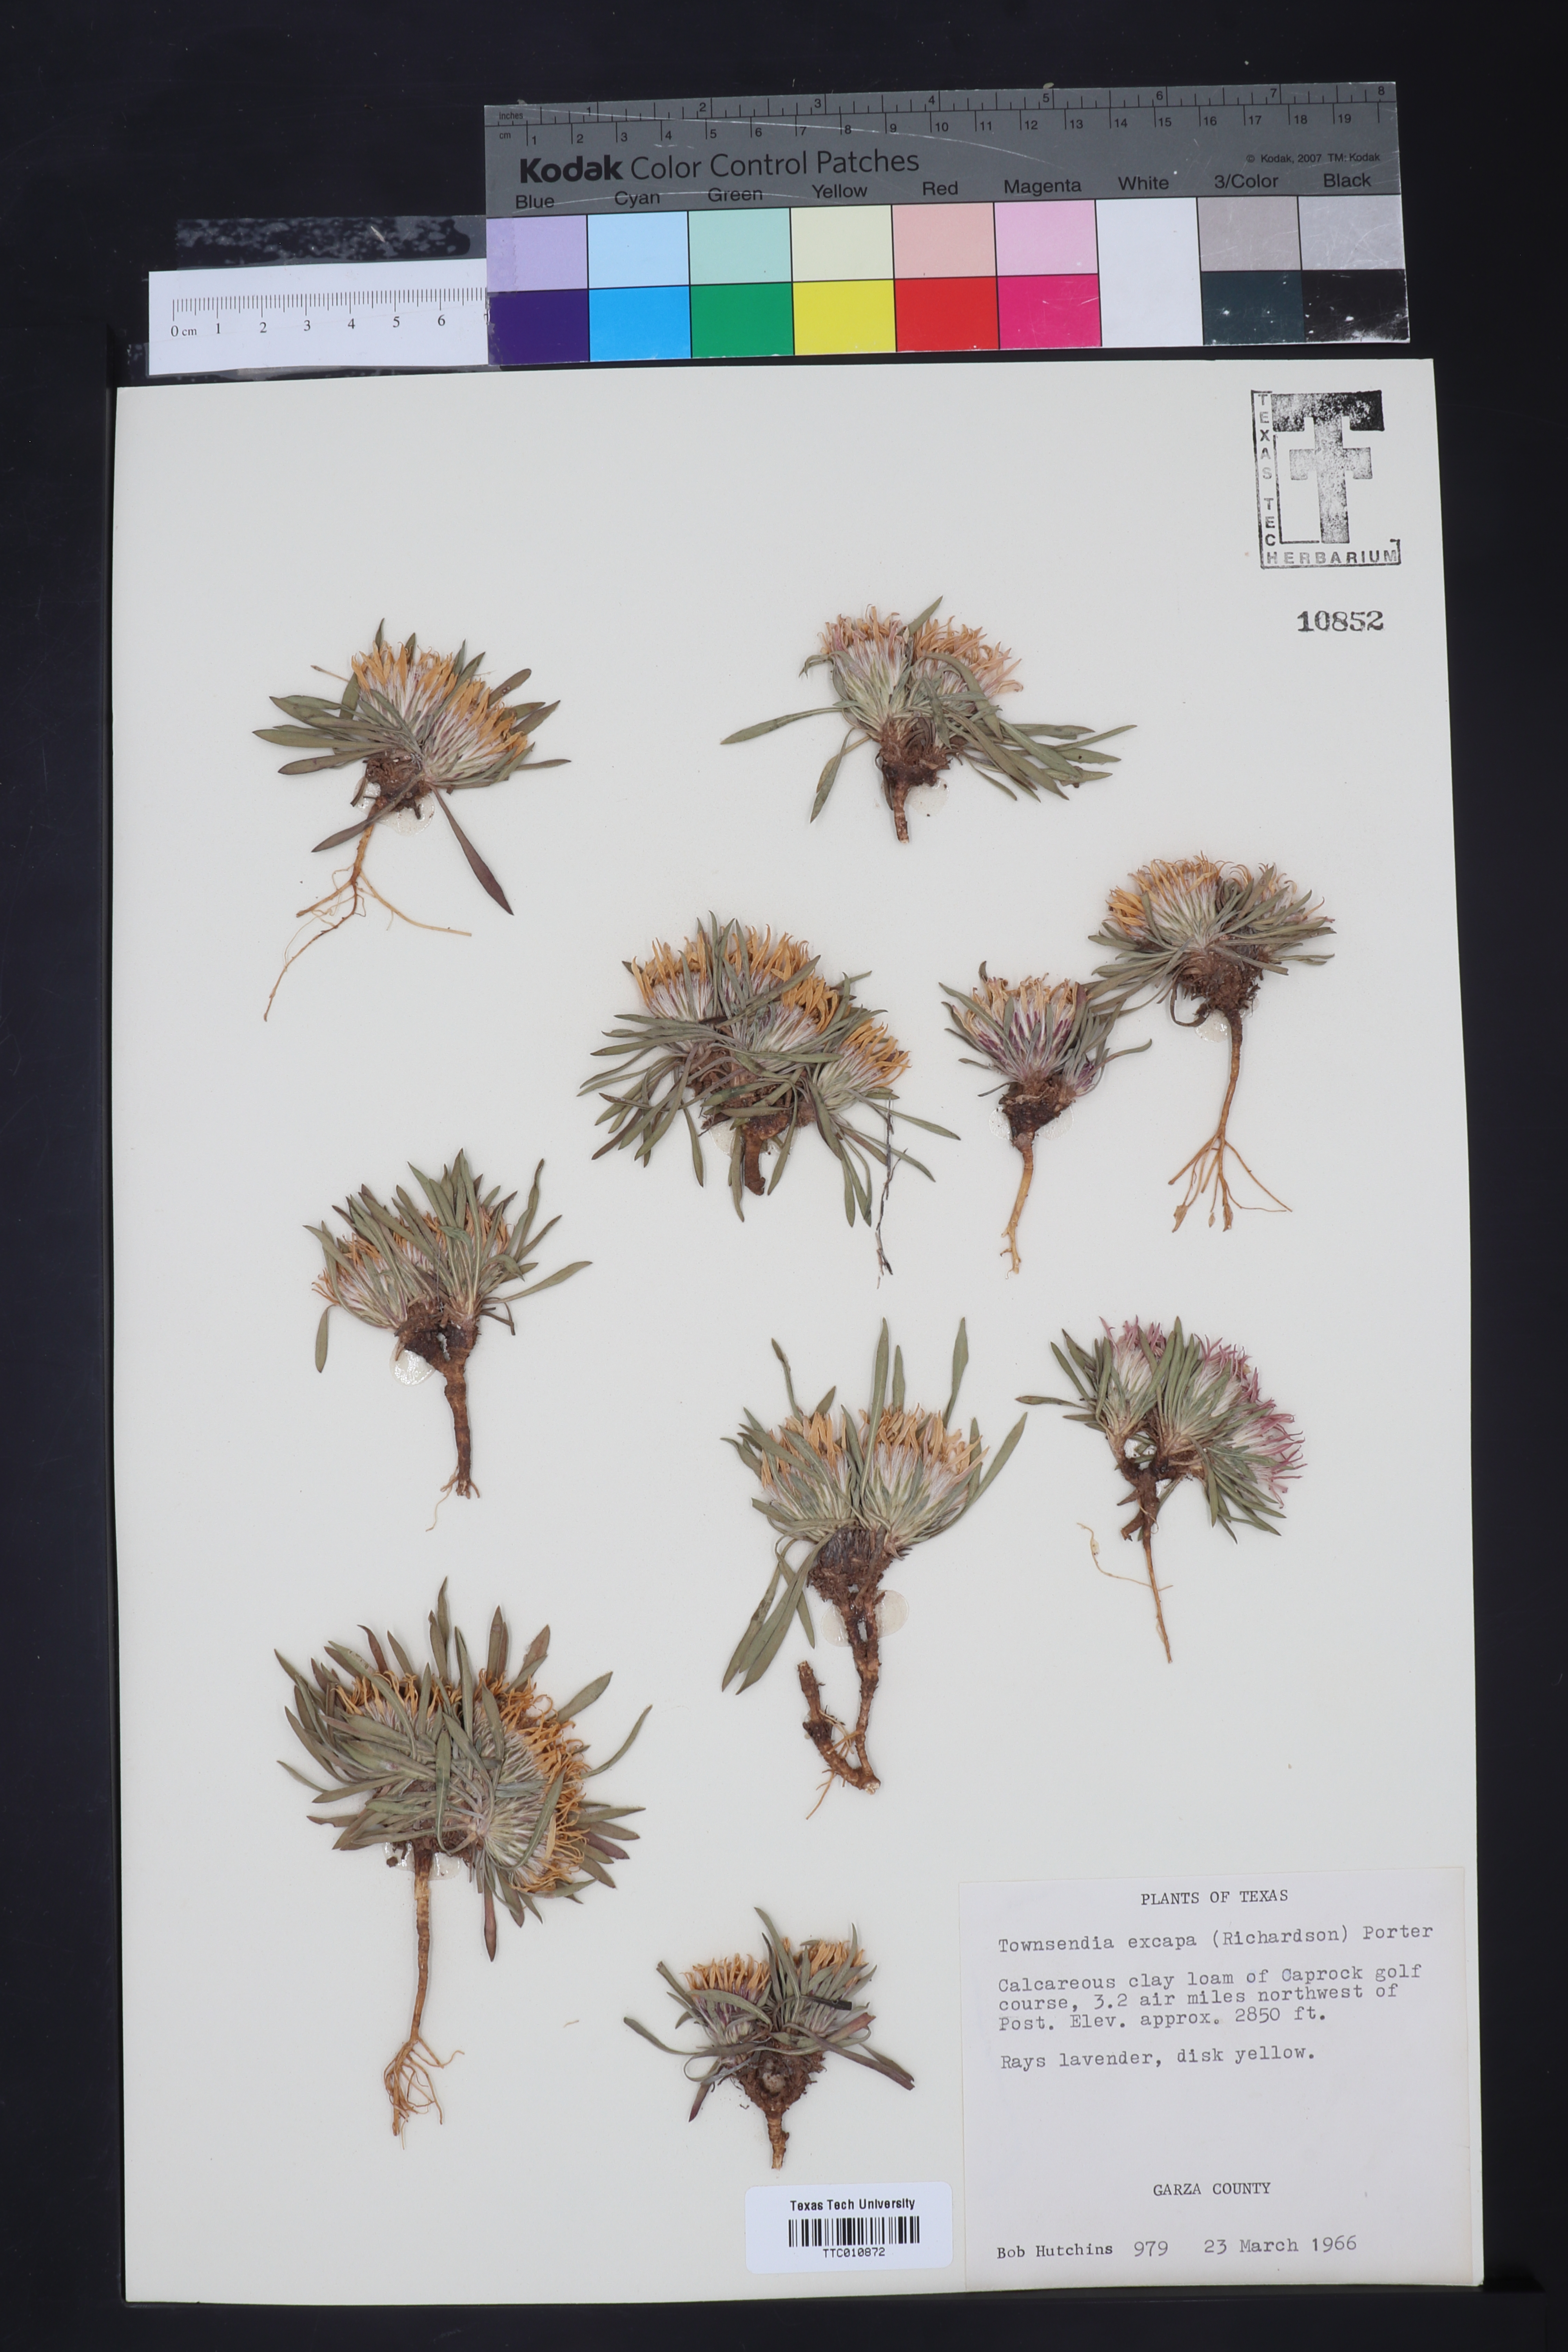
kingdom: Plantae
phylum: Tracheophyta
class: Magnoliopsida
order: Asterales
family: Asteraceae
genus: Townsendia
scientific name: Townsendia exscapa
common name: Dwarf townsendia
